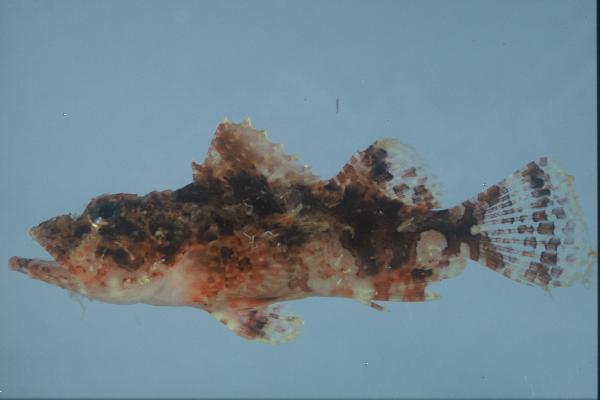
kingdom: Animalia
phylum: Chordata
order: Scorpaeniformes
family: Scorpaenidae
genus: Scorpaenopsis
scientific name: Scorpaenopsis oxycephala
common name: Smallscale scorpionfish
